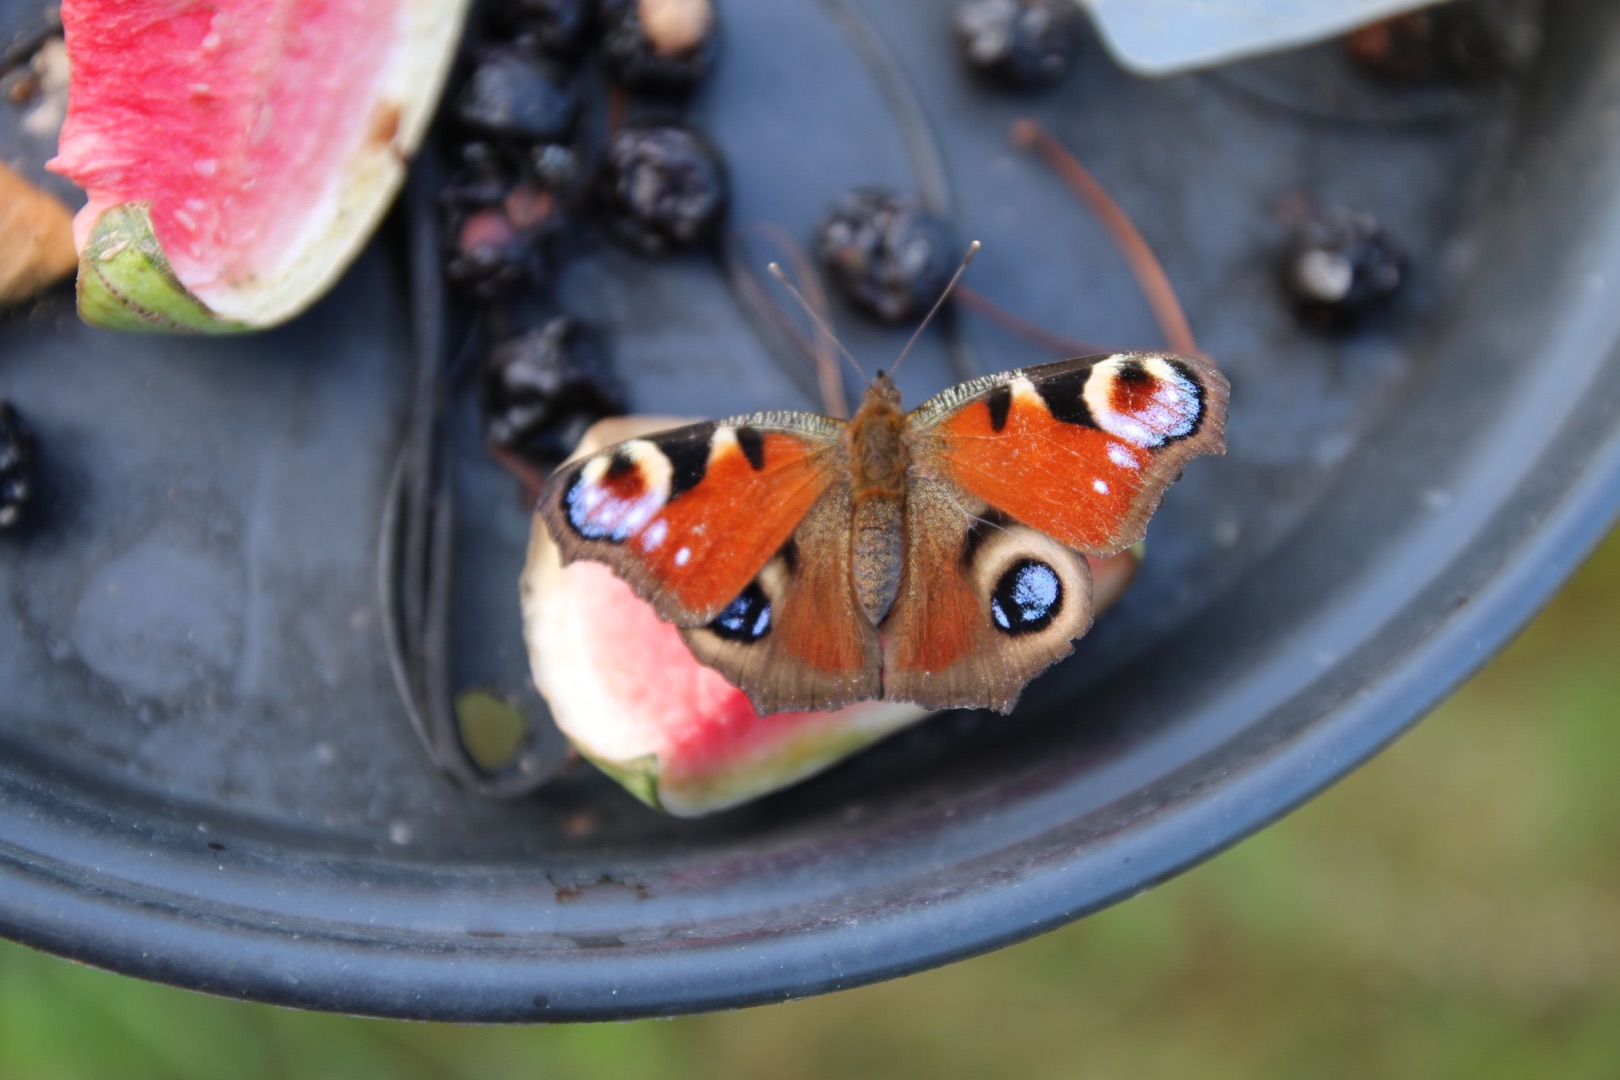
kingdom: Animalia
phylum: Arthropoda
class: Insecta
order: Lepidoptera
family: Nymphalidae
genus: Aglais
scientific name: Aglais io
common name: Dagpåfugleøje
